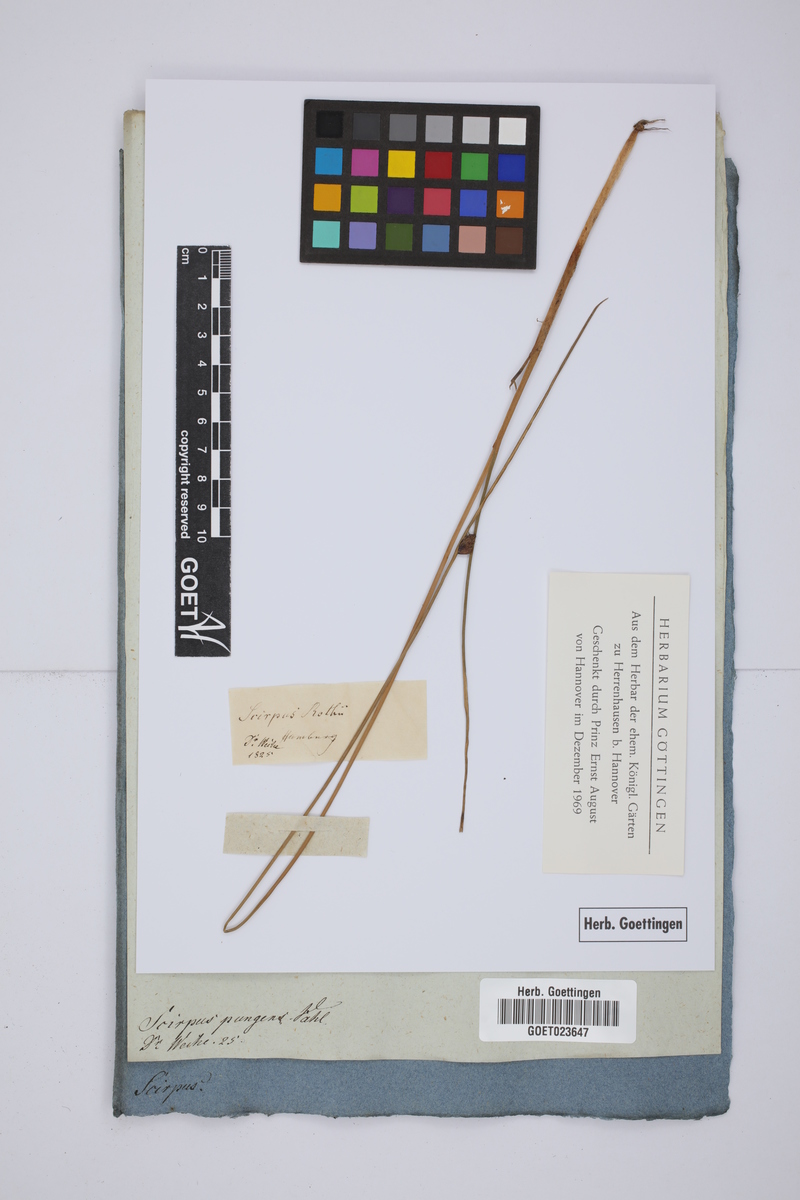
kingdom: Plantae
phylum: Tracheophyta
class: Liliopsida
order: Poales
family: Cyperaceae
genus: Schoenoplectus
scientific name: Schoenoplectus pungens
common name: Sharp club-rush
